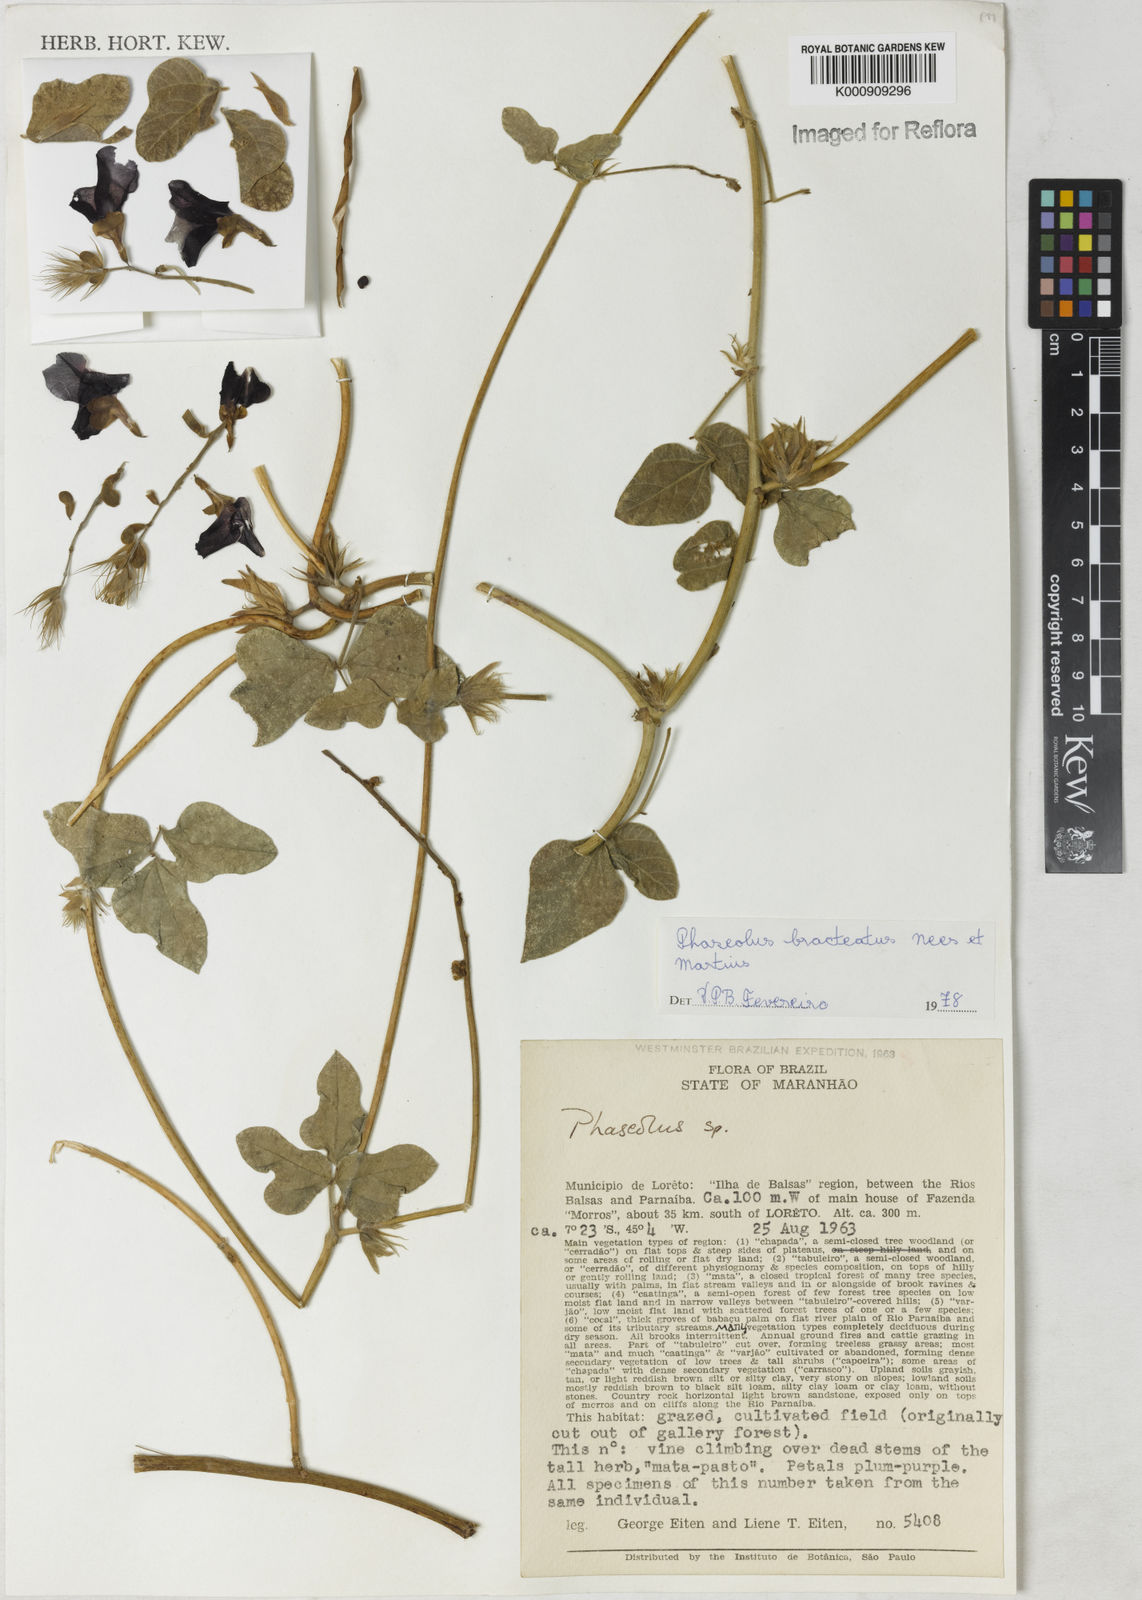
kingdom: Plantae
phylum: Tracheophyta
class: Magnoliopsida
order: Fabales
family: Fabaceae
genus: Macroptilium
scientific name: Macroptilium
